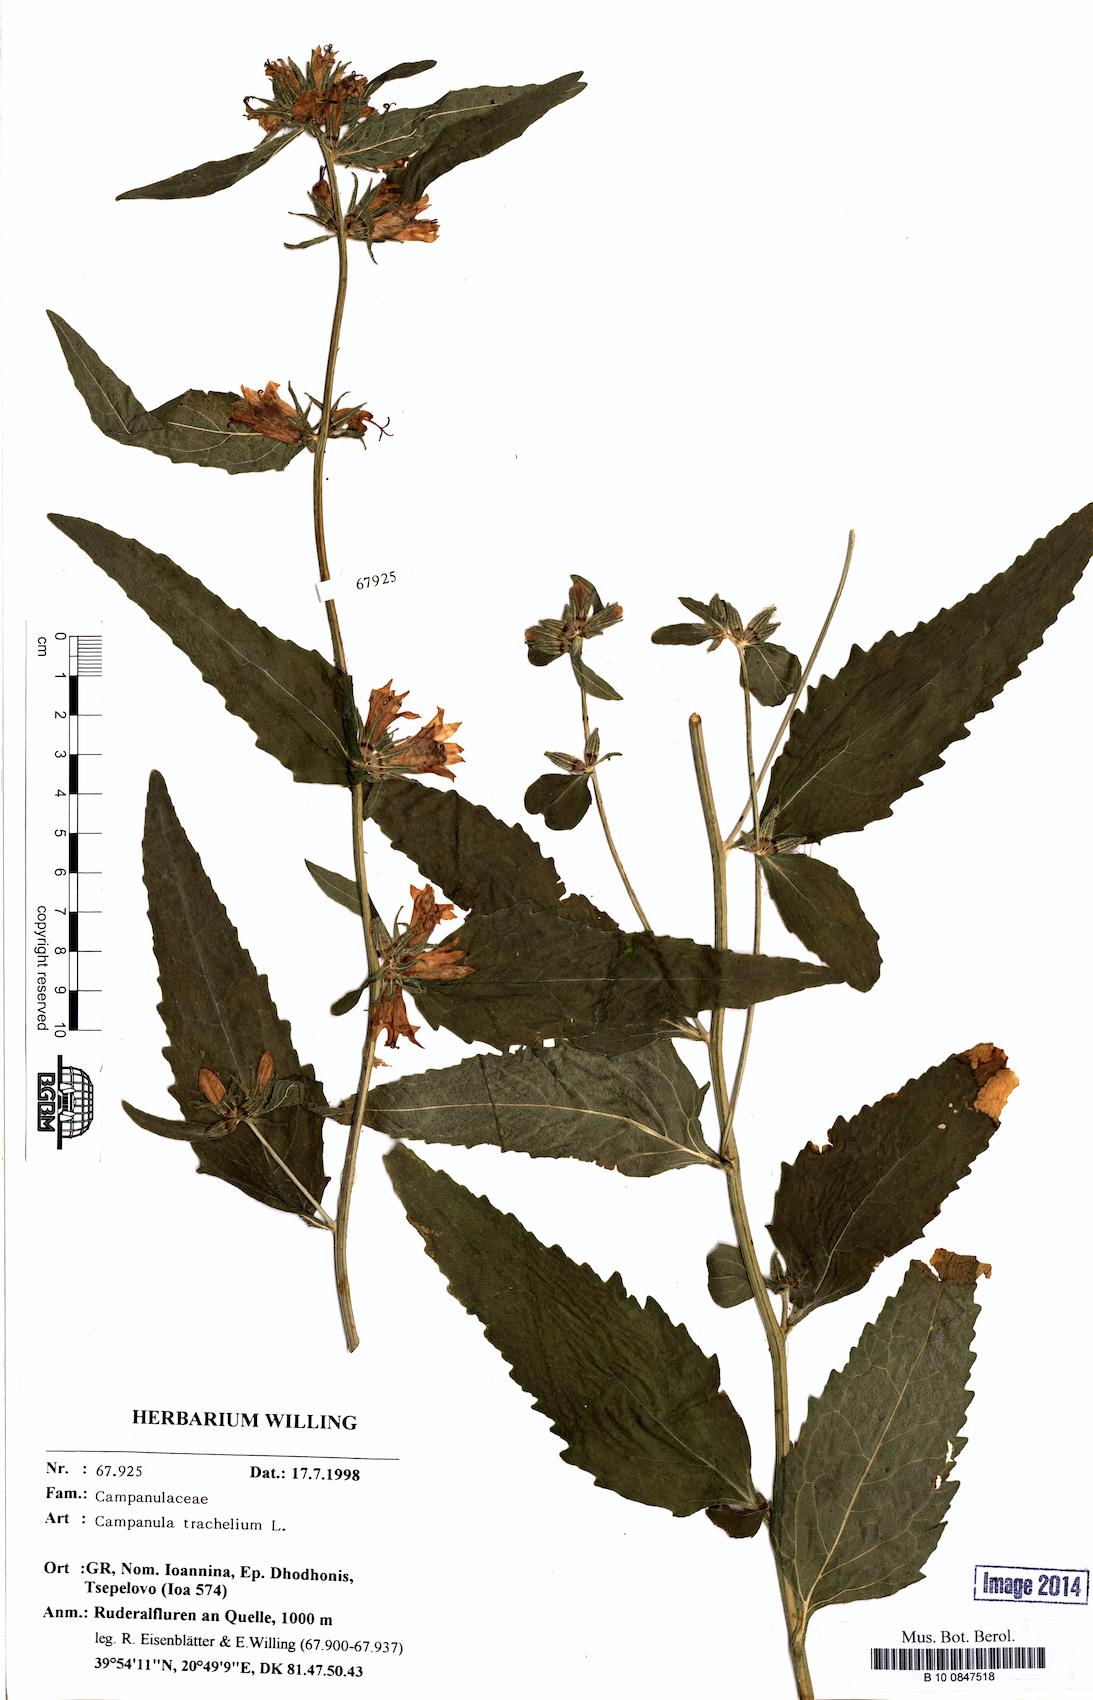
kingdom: Plantae
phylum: Tracheophyta
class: Magnoliopsida
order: Asterales
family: Campanulaceae
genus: Campanula
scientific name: Campanula trachelium
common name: Nettle-leaved bellflower
